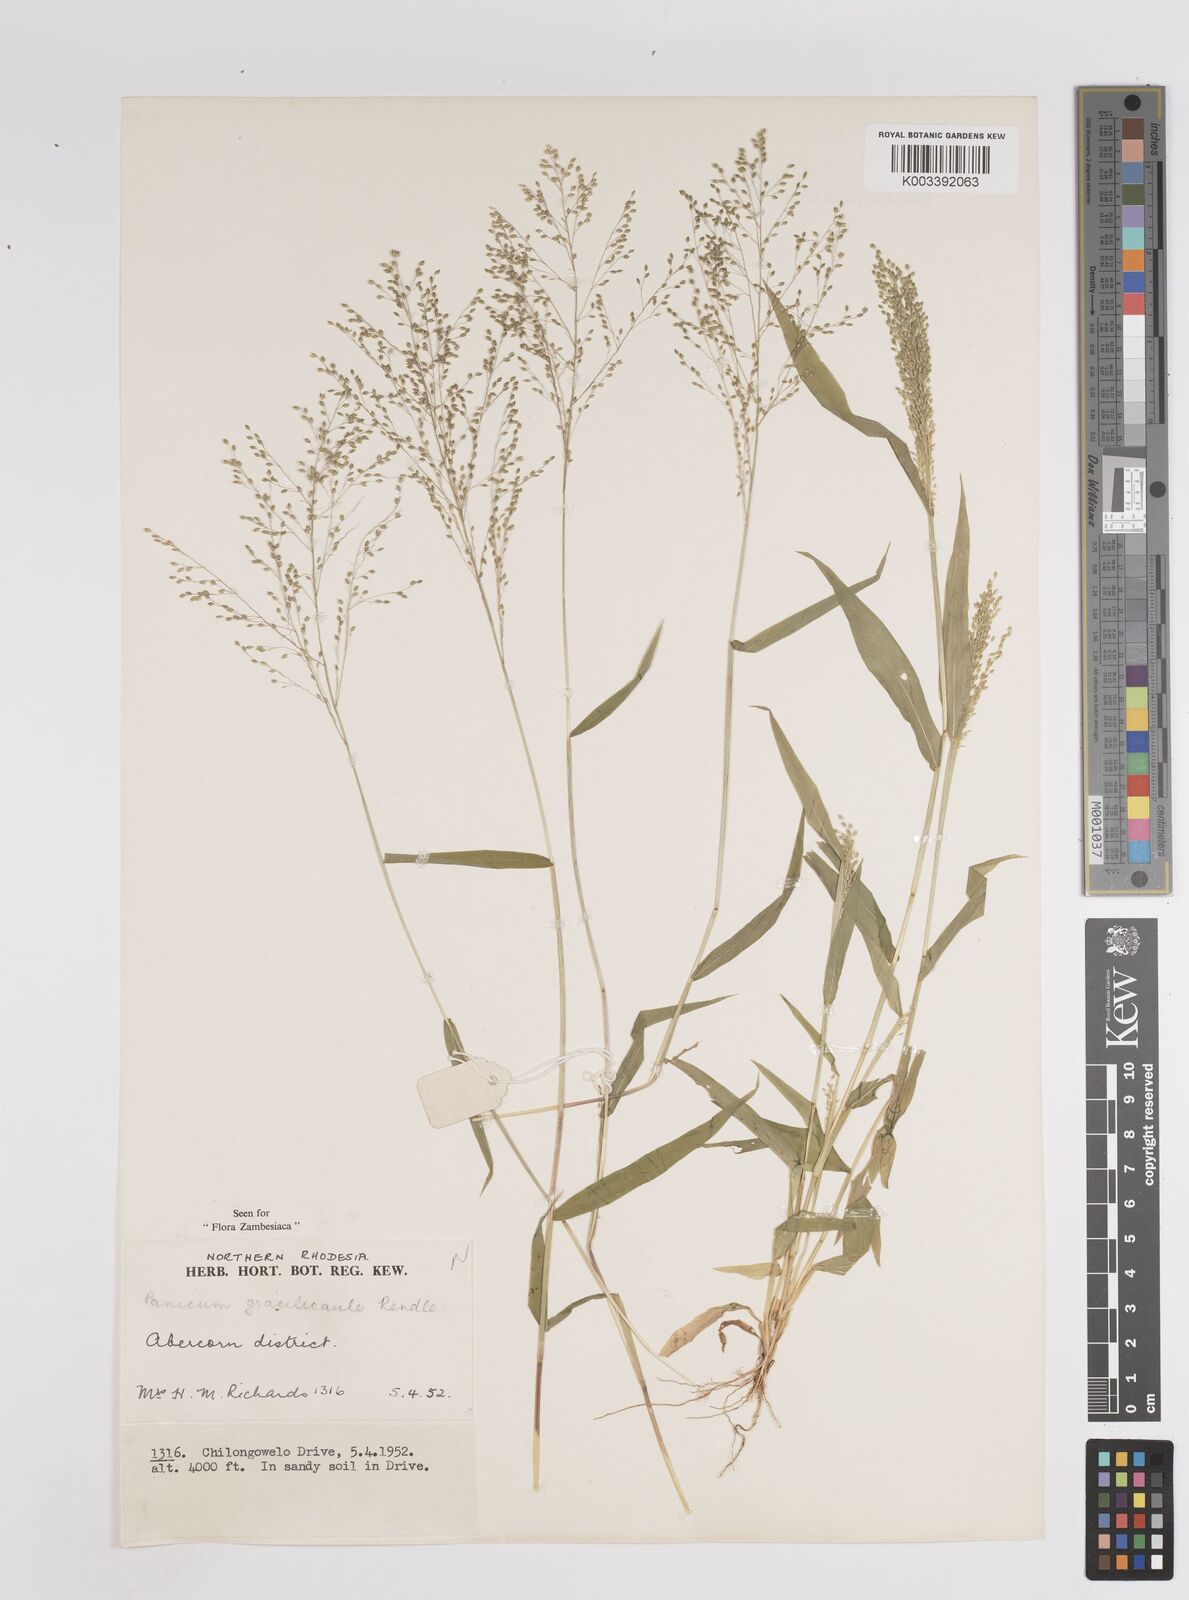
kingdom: Plantae
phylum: Tracheophyta
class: Liliopsida
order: Poales
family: Poaceae
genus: Trichanthecium
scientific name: Trichanthecium gracilicaule
